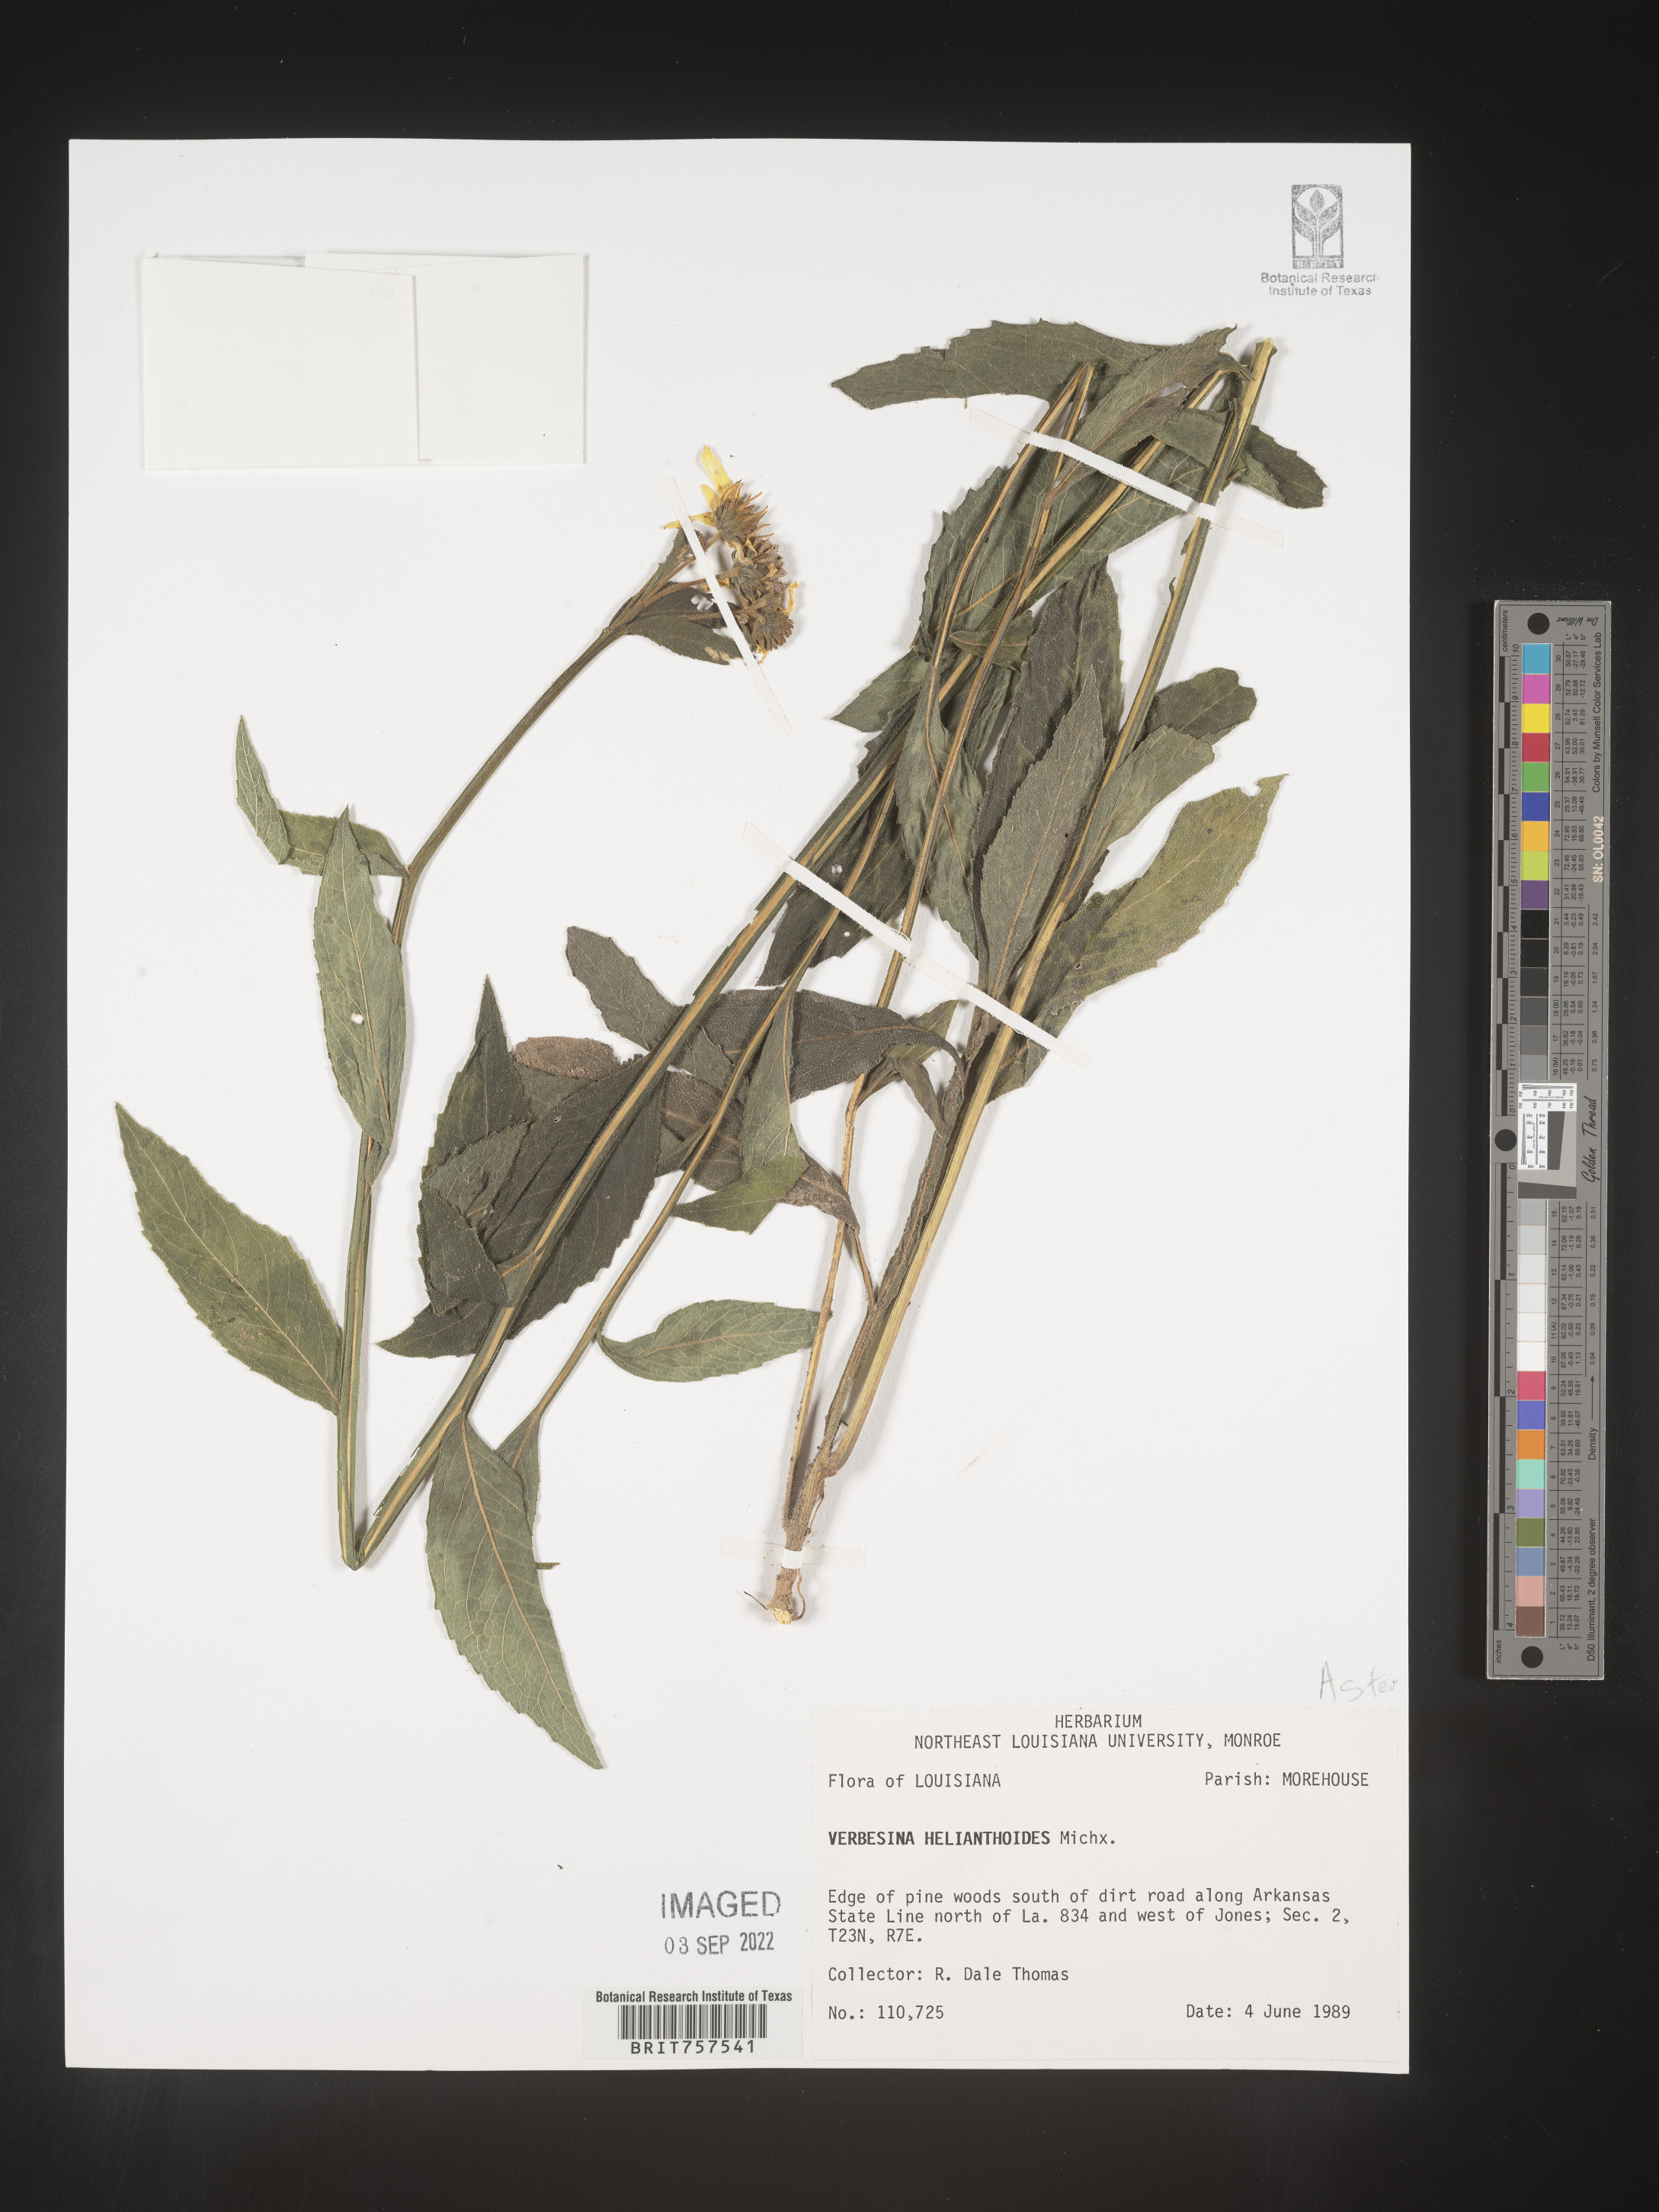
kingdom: Plantae
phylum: Tracheophyta
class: Magnoliopsida
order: Asterales
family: Asteraceae
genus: Verbesina
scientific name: Verbesina helianthoides
